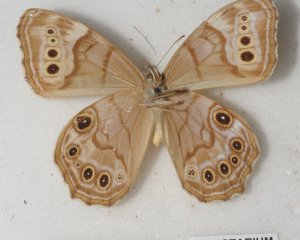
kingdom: Animalia
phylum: Arthropoda
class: Insecta
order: Lepidoptera
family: Nymphalidae
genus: Lethe
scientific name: Lethe anthedon
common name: Northern Pearly-Eye
